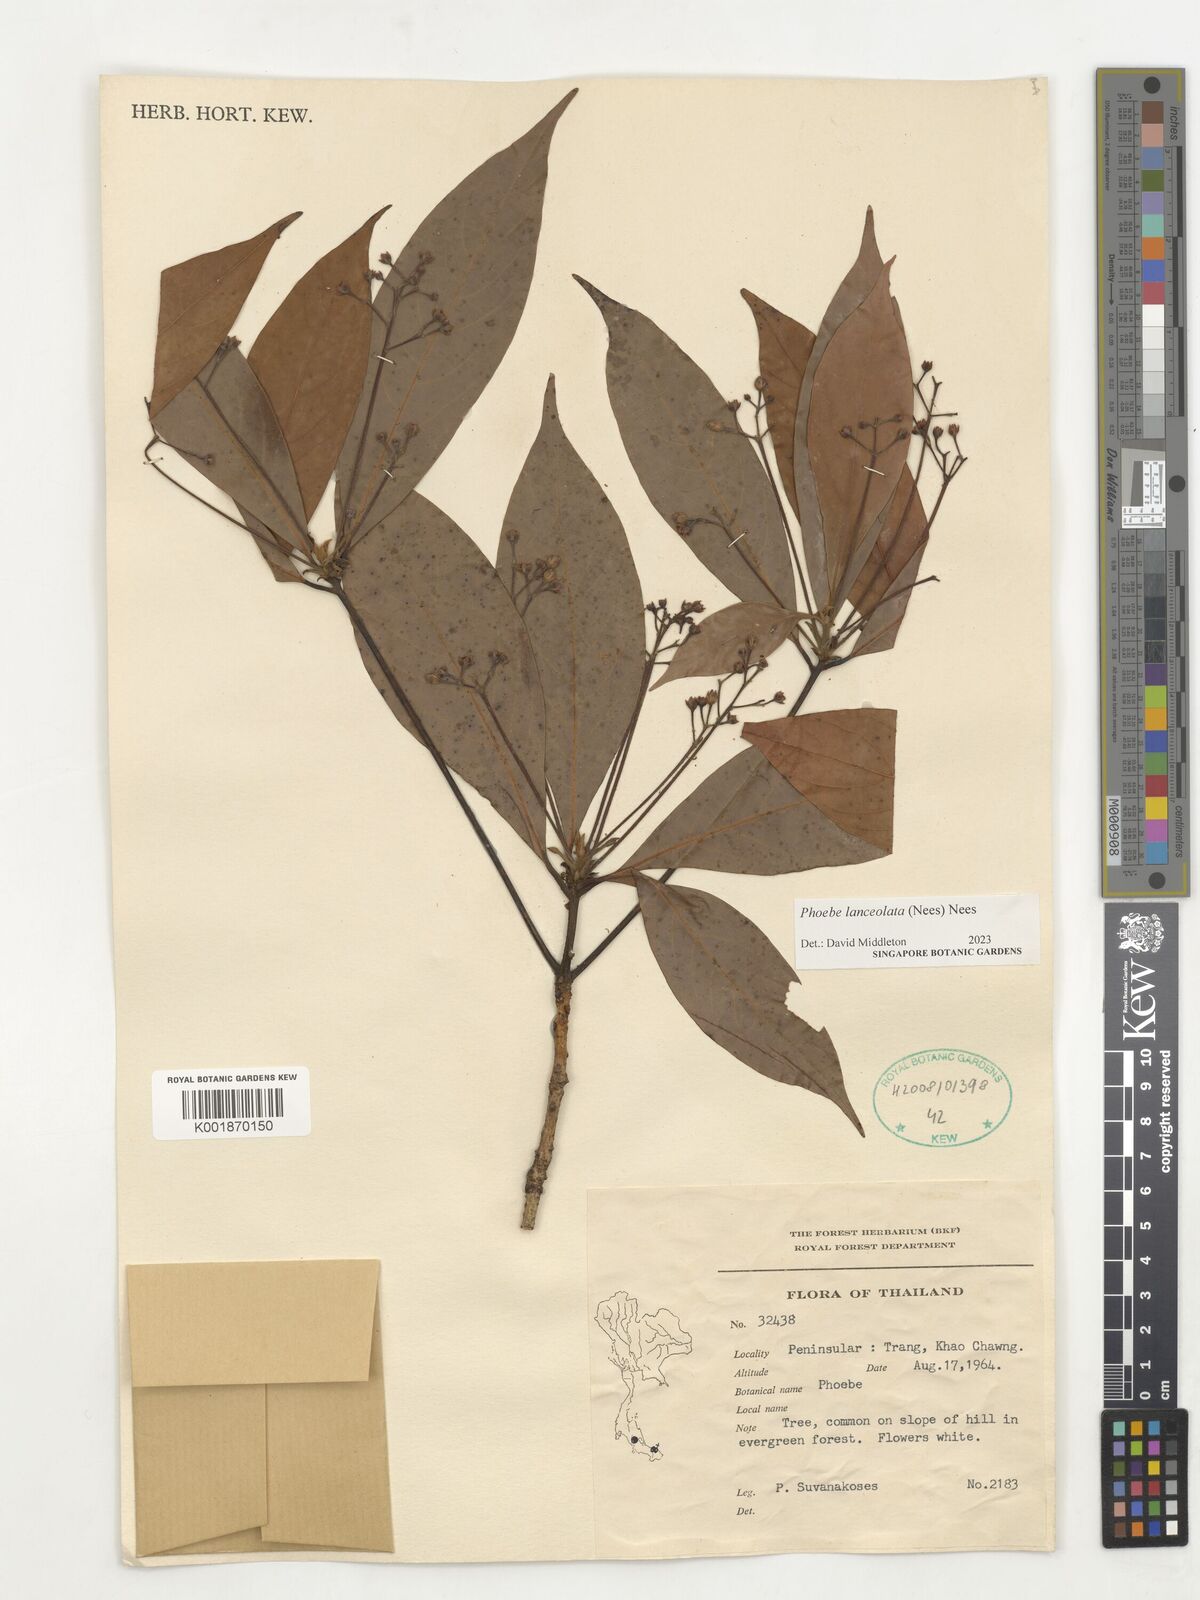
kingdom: Plantae
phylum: Tracheophyta
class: Magnoliopsida
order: Laurales
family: Lauraceae
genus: Phoebe
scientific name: Phoebe lanceolata
